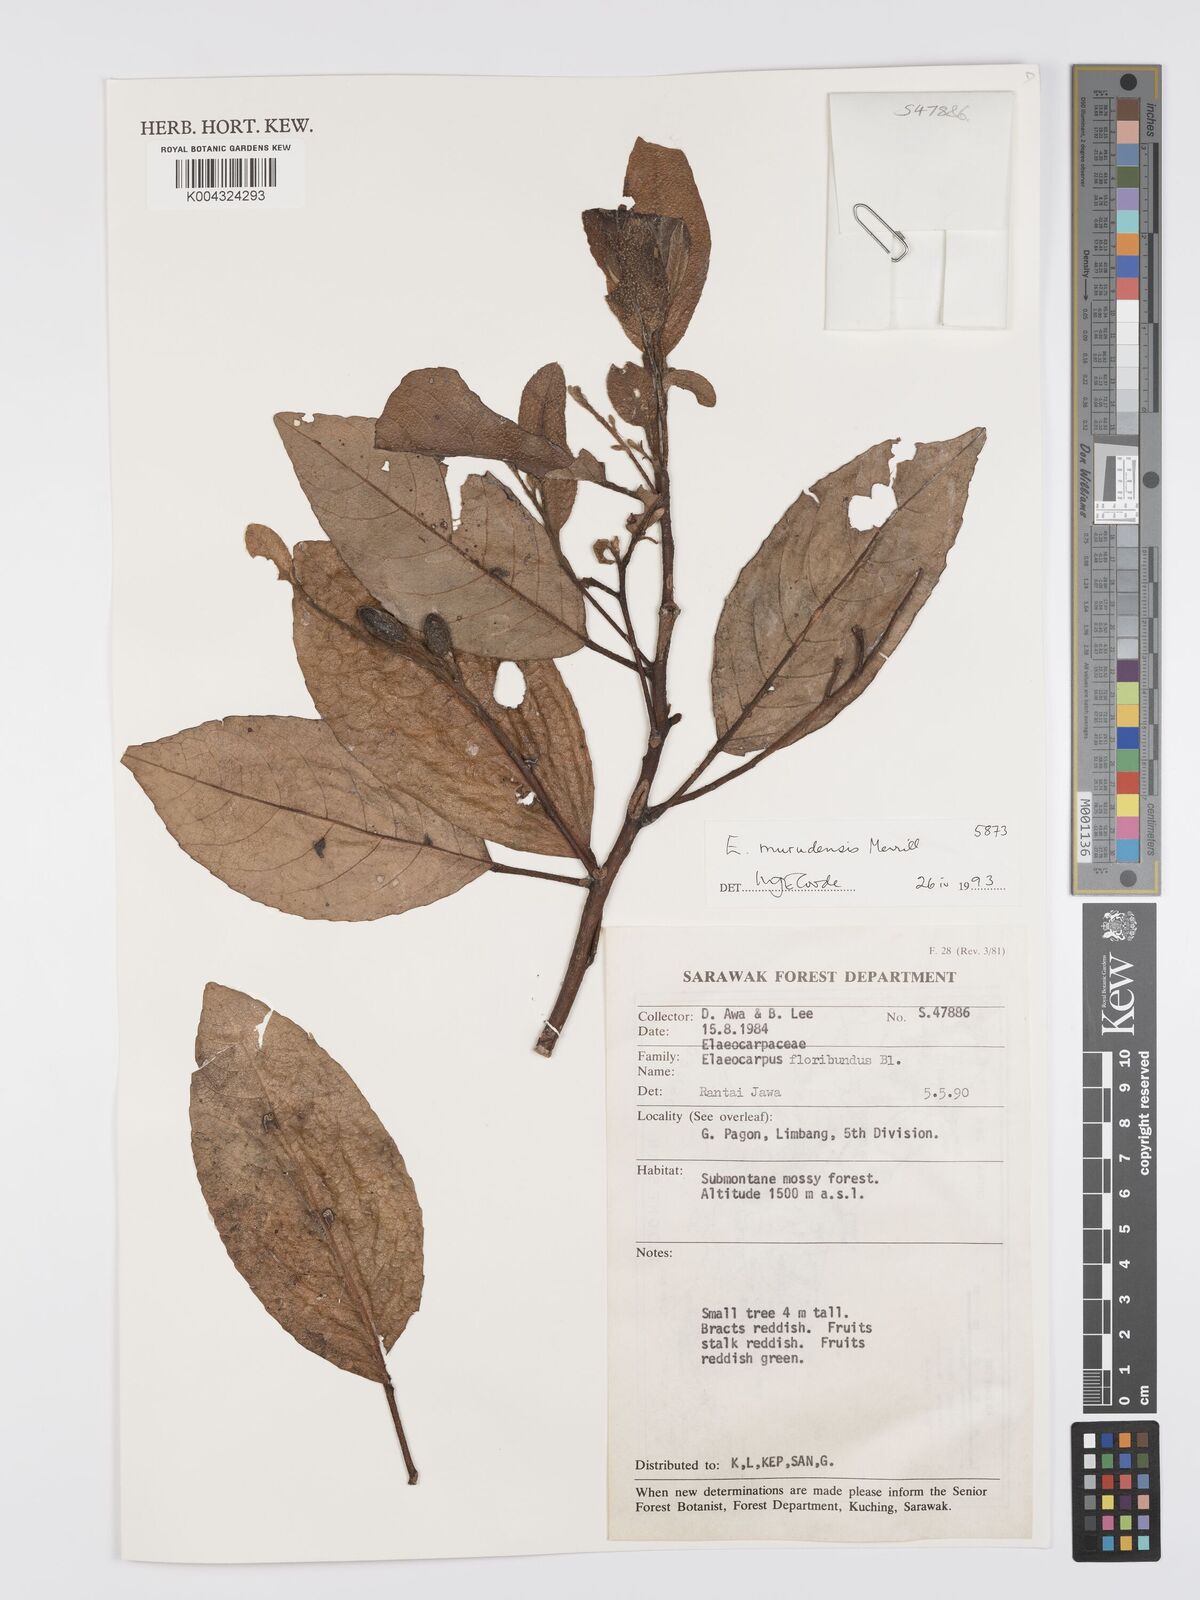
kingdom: Plantae
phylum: Tracheophyta
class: Magnoliopsida
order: Oxalidales
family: Elaeocarpaceae
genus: Elaeocarpus
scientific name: Elaeocarpus murudensis
